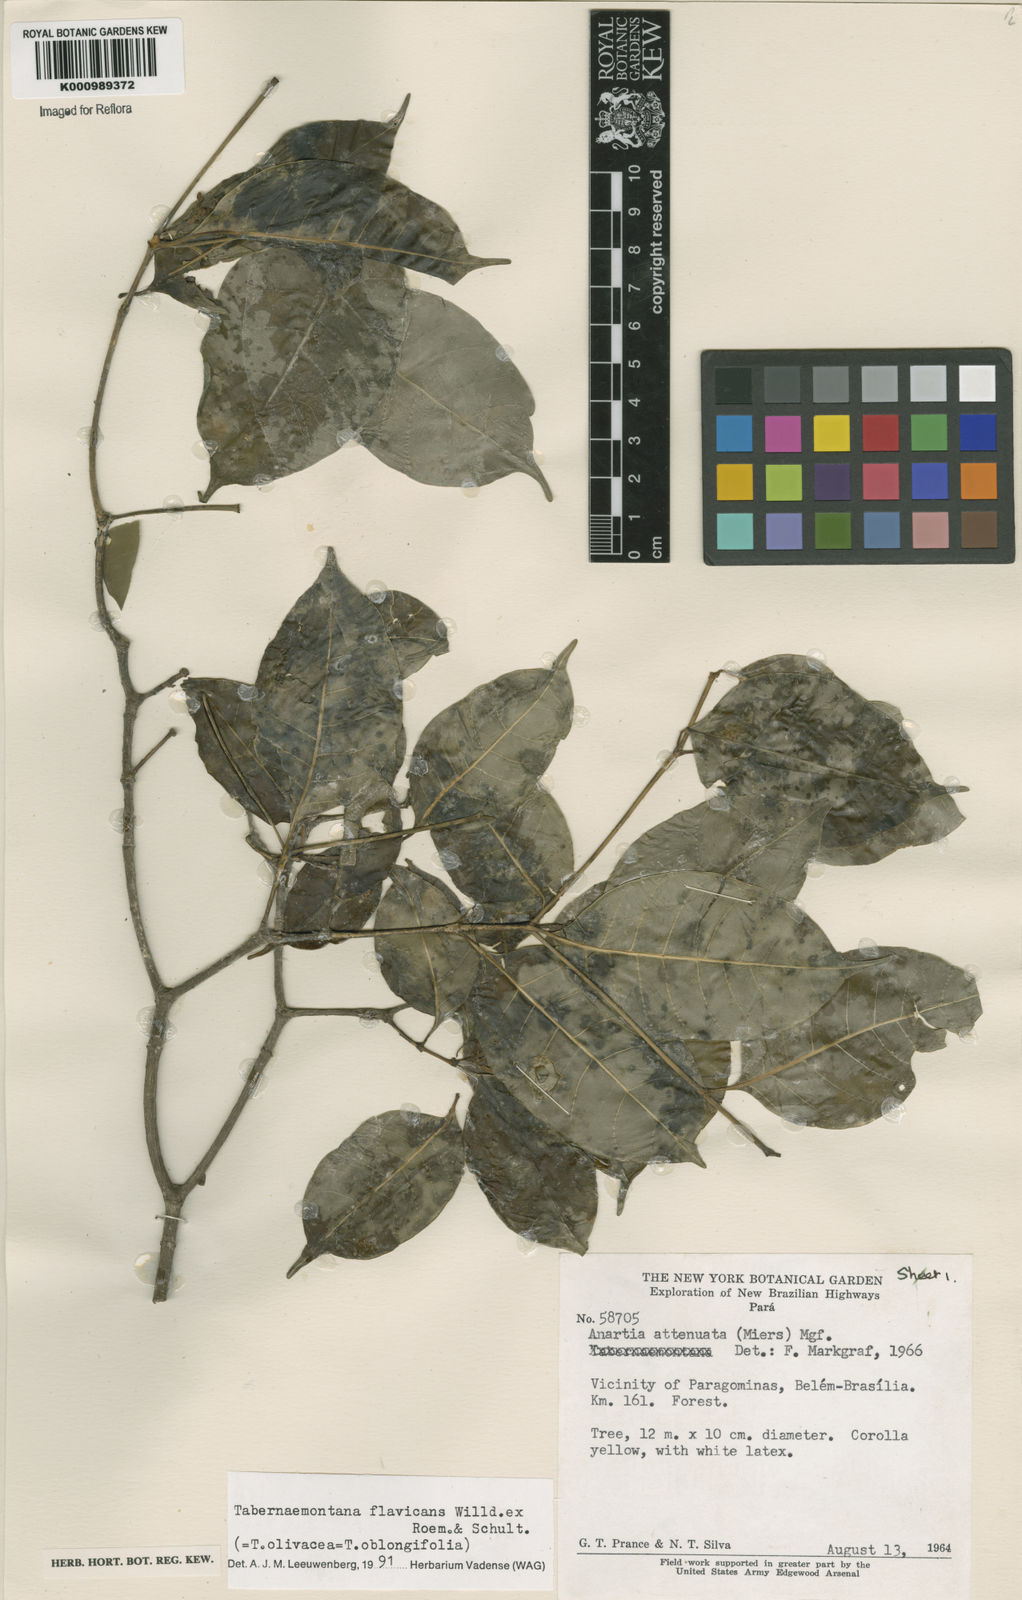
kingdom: Plantae
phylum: Tracheophyta
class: Magnoliopsida
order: Gentianales
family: Apocynaceae
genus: Tabernaemontana
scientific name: Tabernaemontana flavicans
